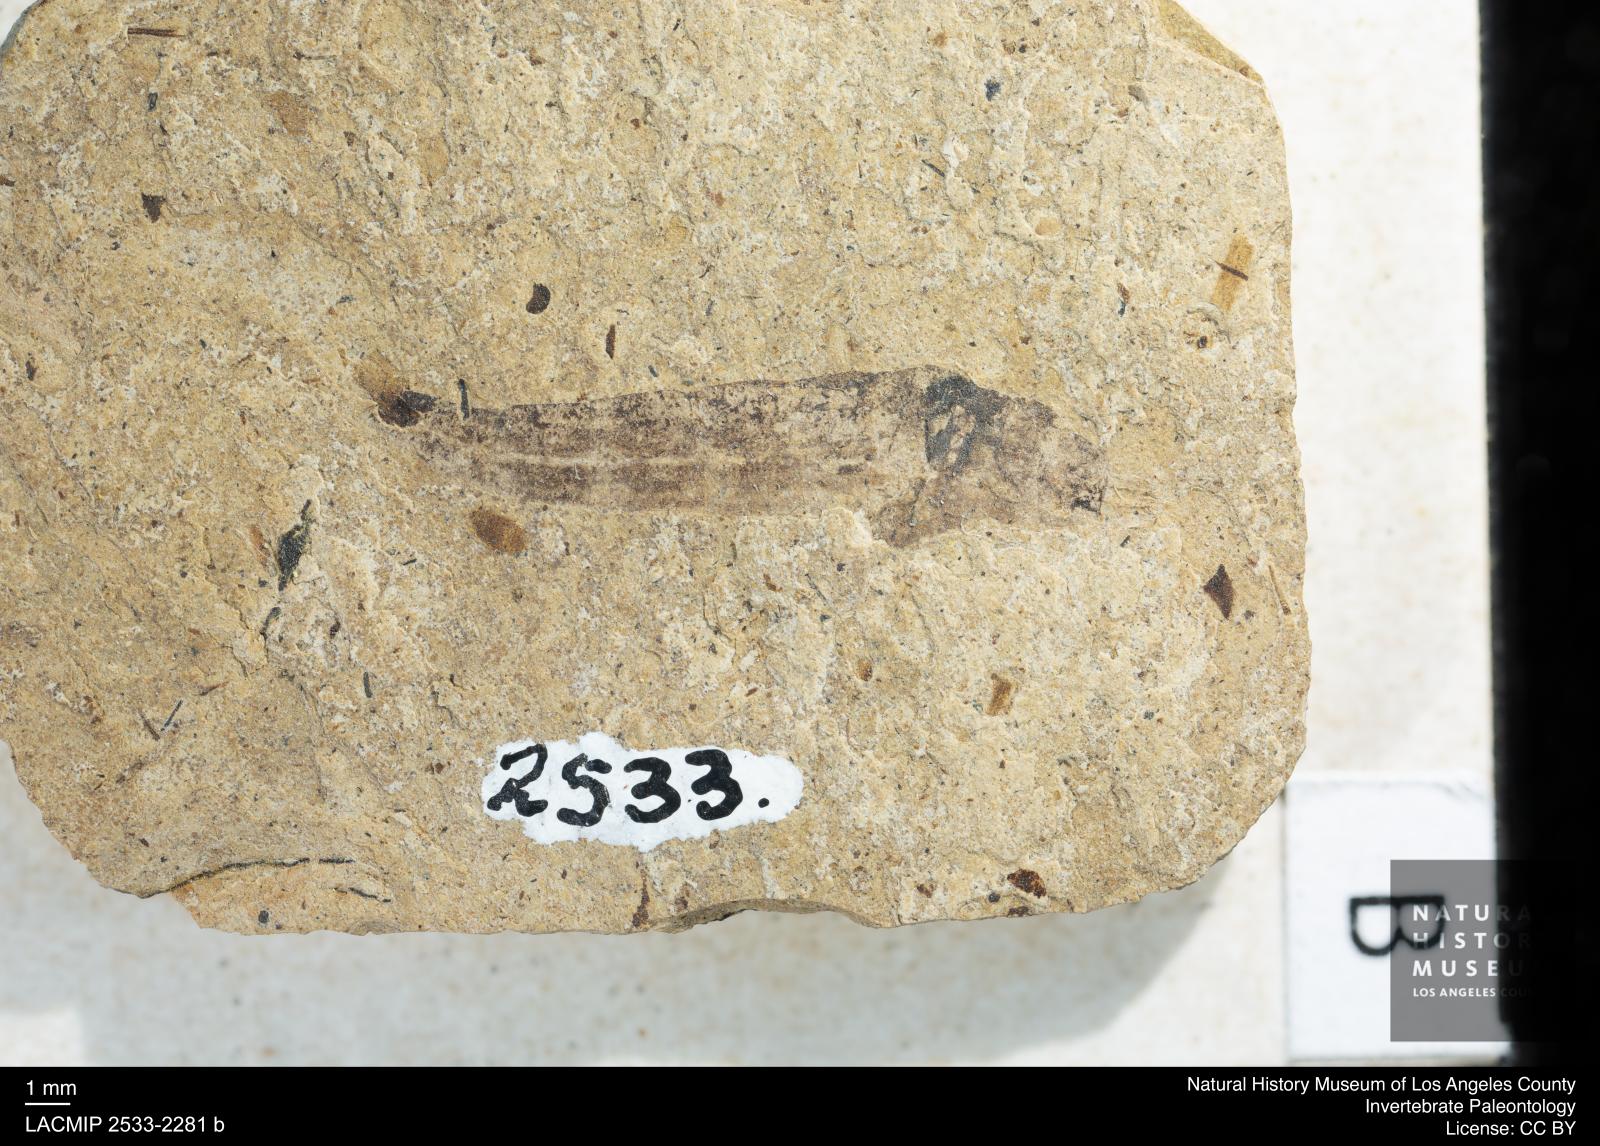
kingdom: Animalia
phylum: Arthropoda
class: Insecta
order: Diptera
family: Stratiomyidae
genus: Odontomyia
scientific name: Odontomyia
